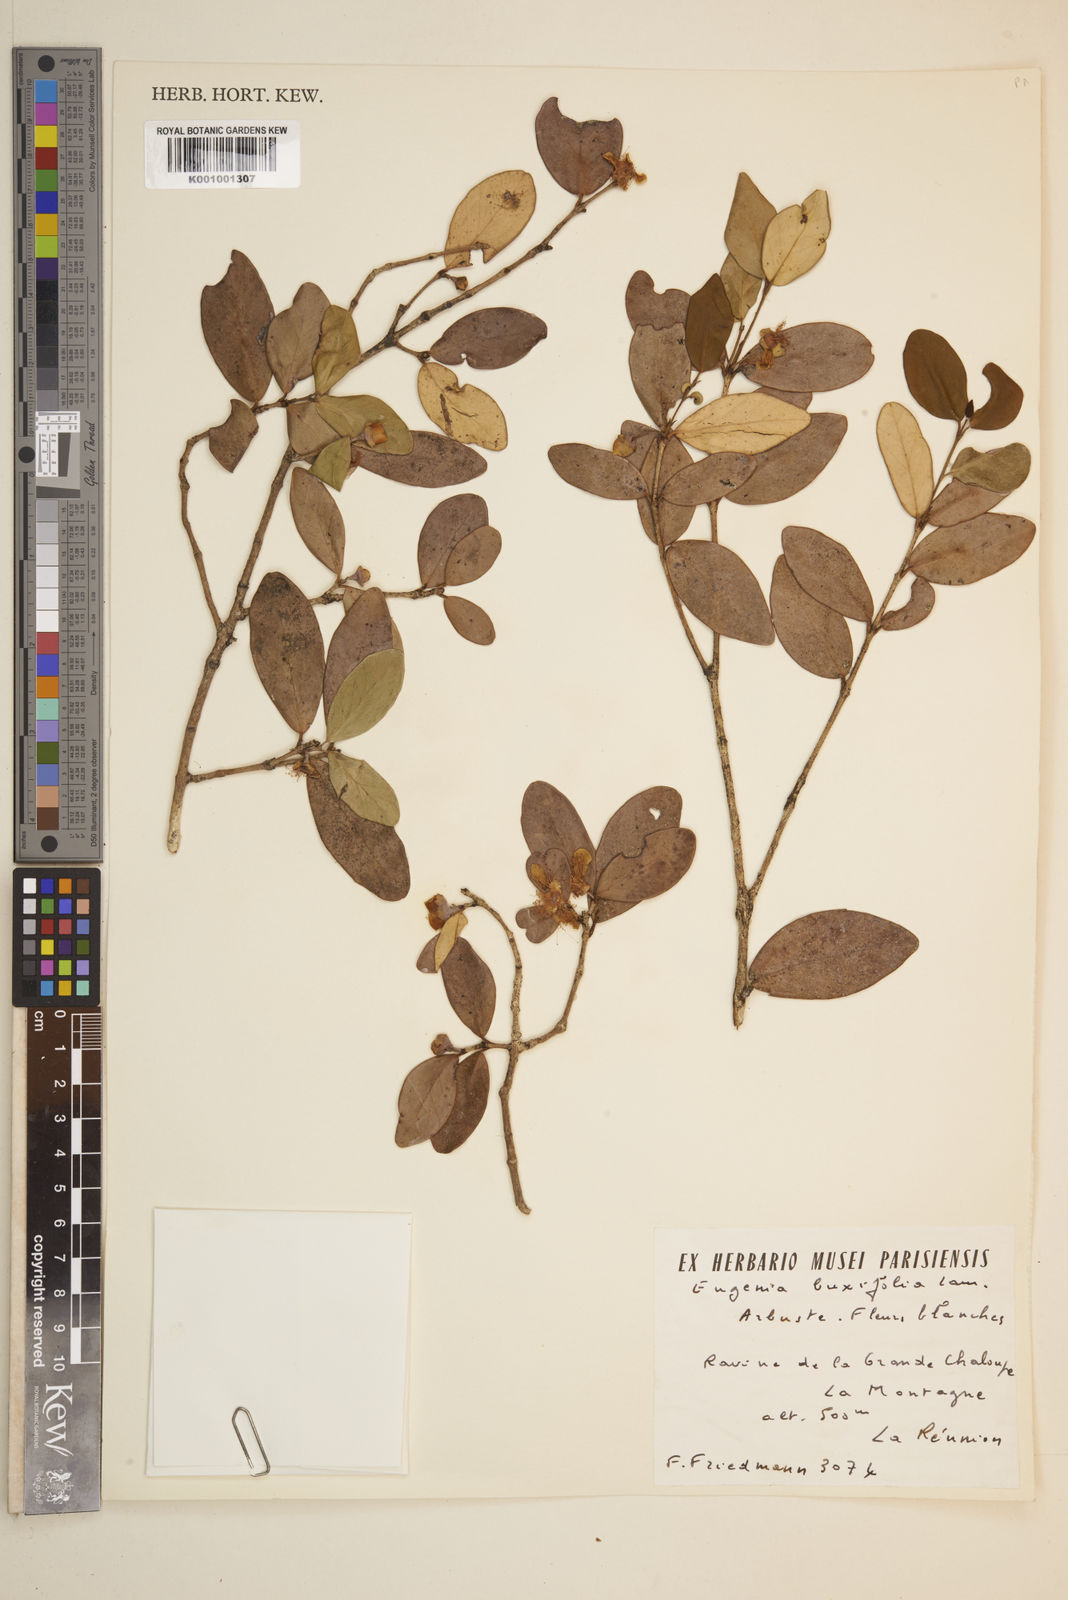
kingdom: Plantae
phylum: Tracheophyta
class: Magnoliopsida
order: Myrtales
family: Myrtaceae
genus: Eugenia
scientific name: Eugenia buxifolia
